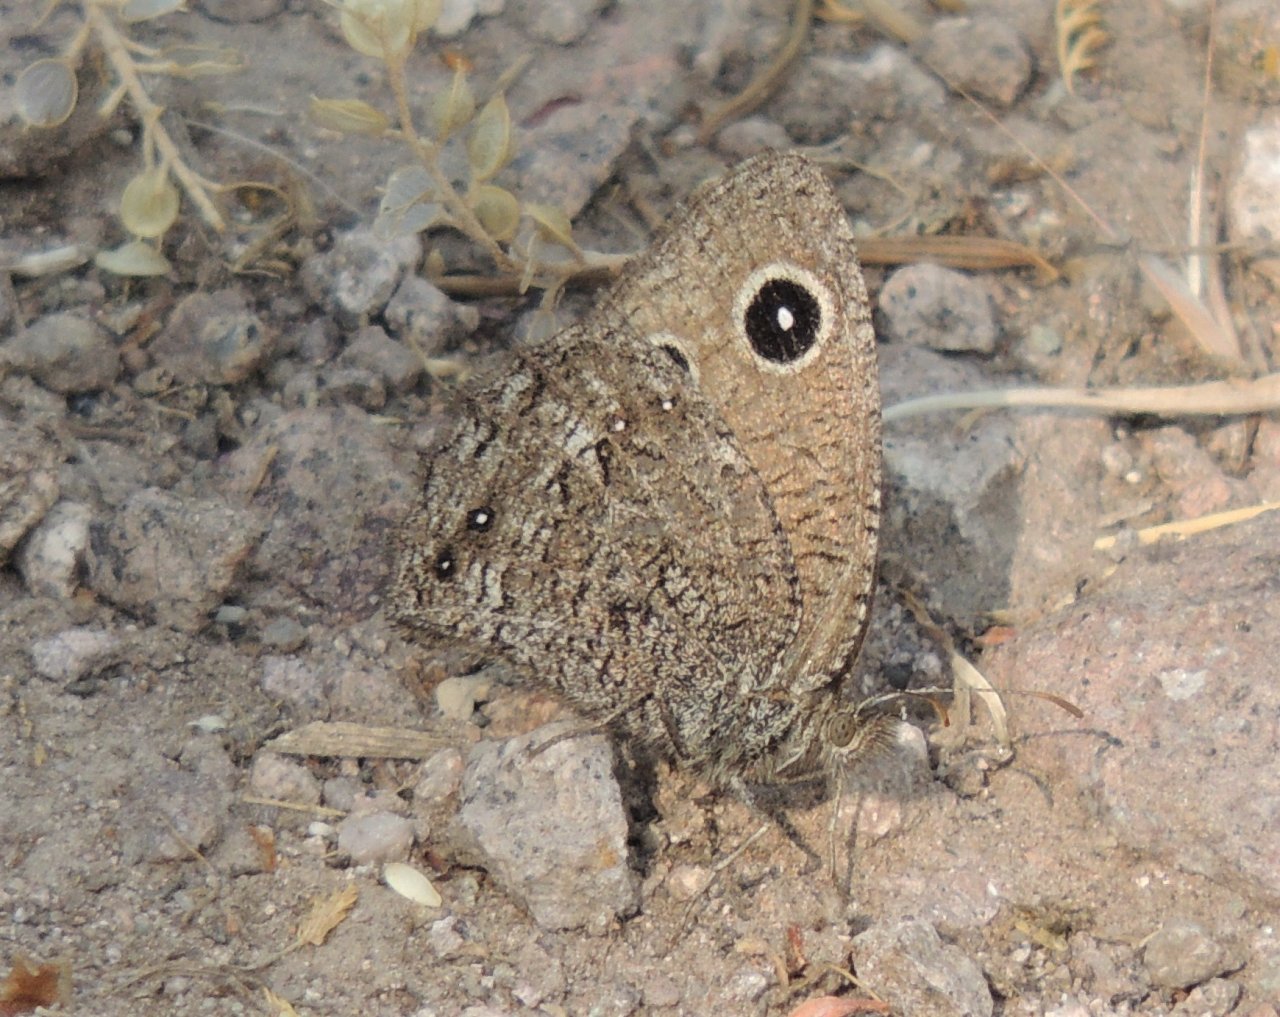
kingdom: Animalia
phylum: Arthropoda
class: Insecta
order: Lepidoptera
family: Nymphalidae
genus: Cercyonis
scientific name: Cercyonis oetus
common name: Small Wood-Nymph
